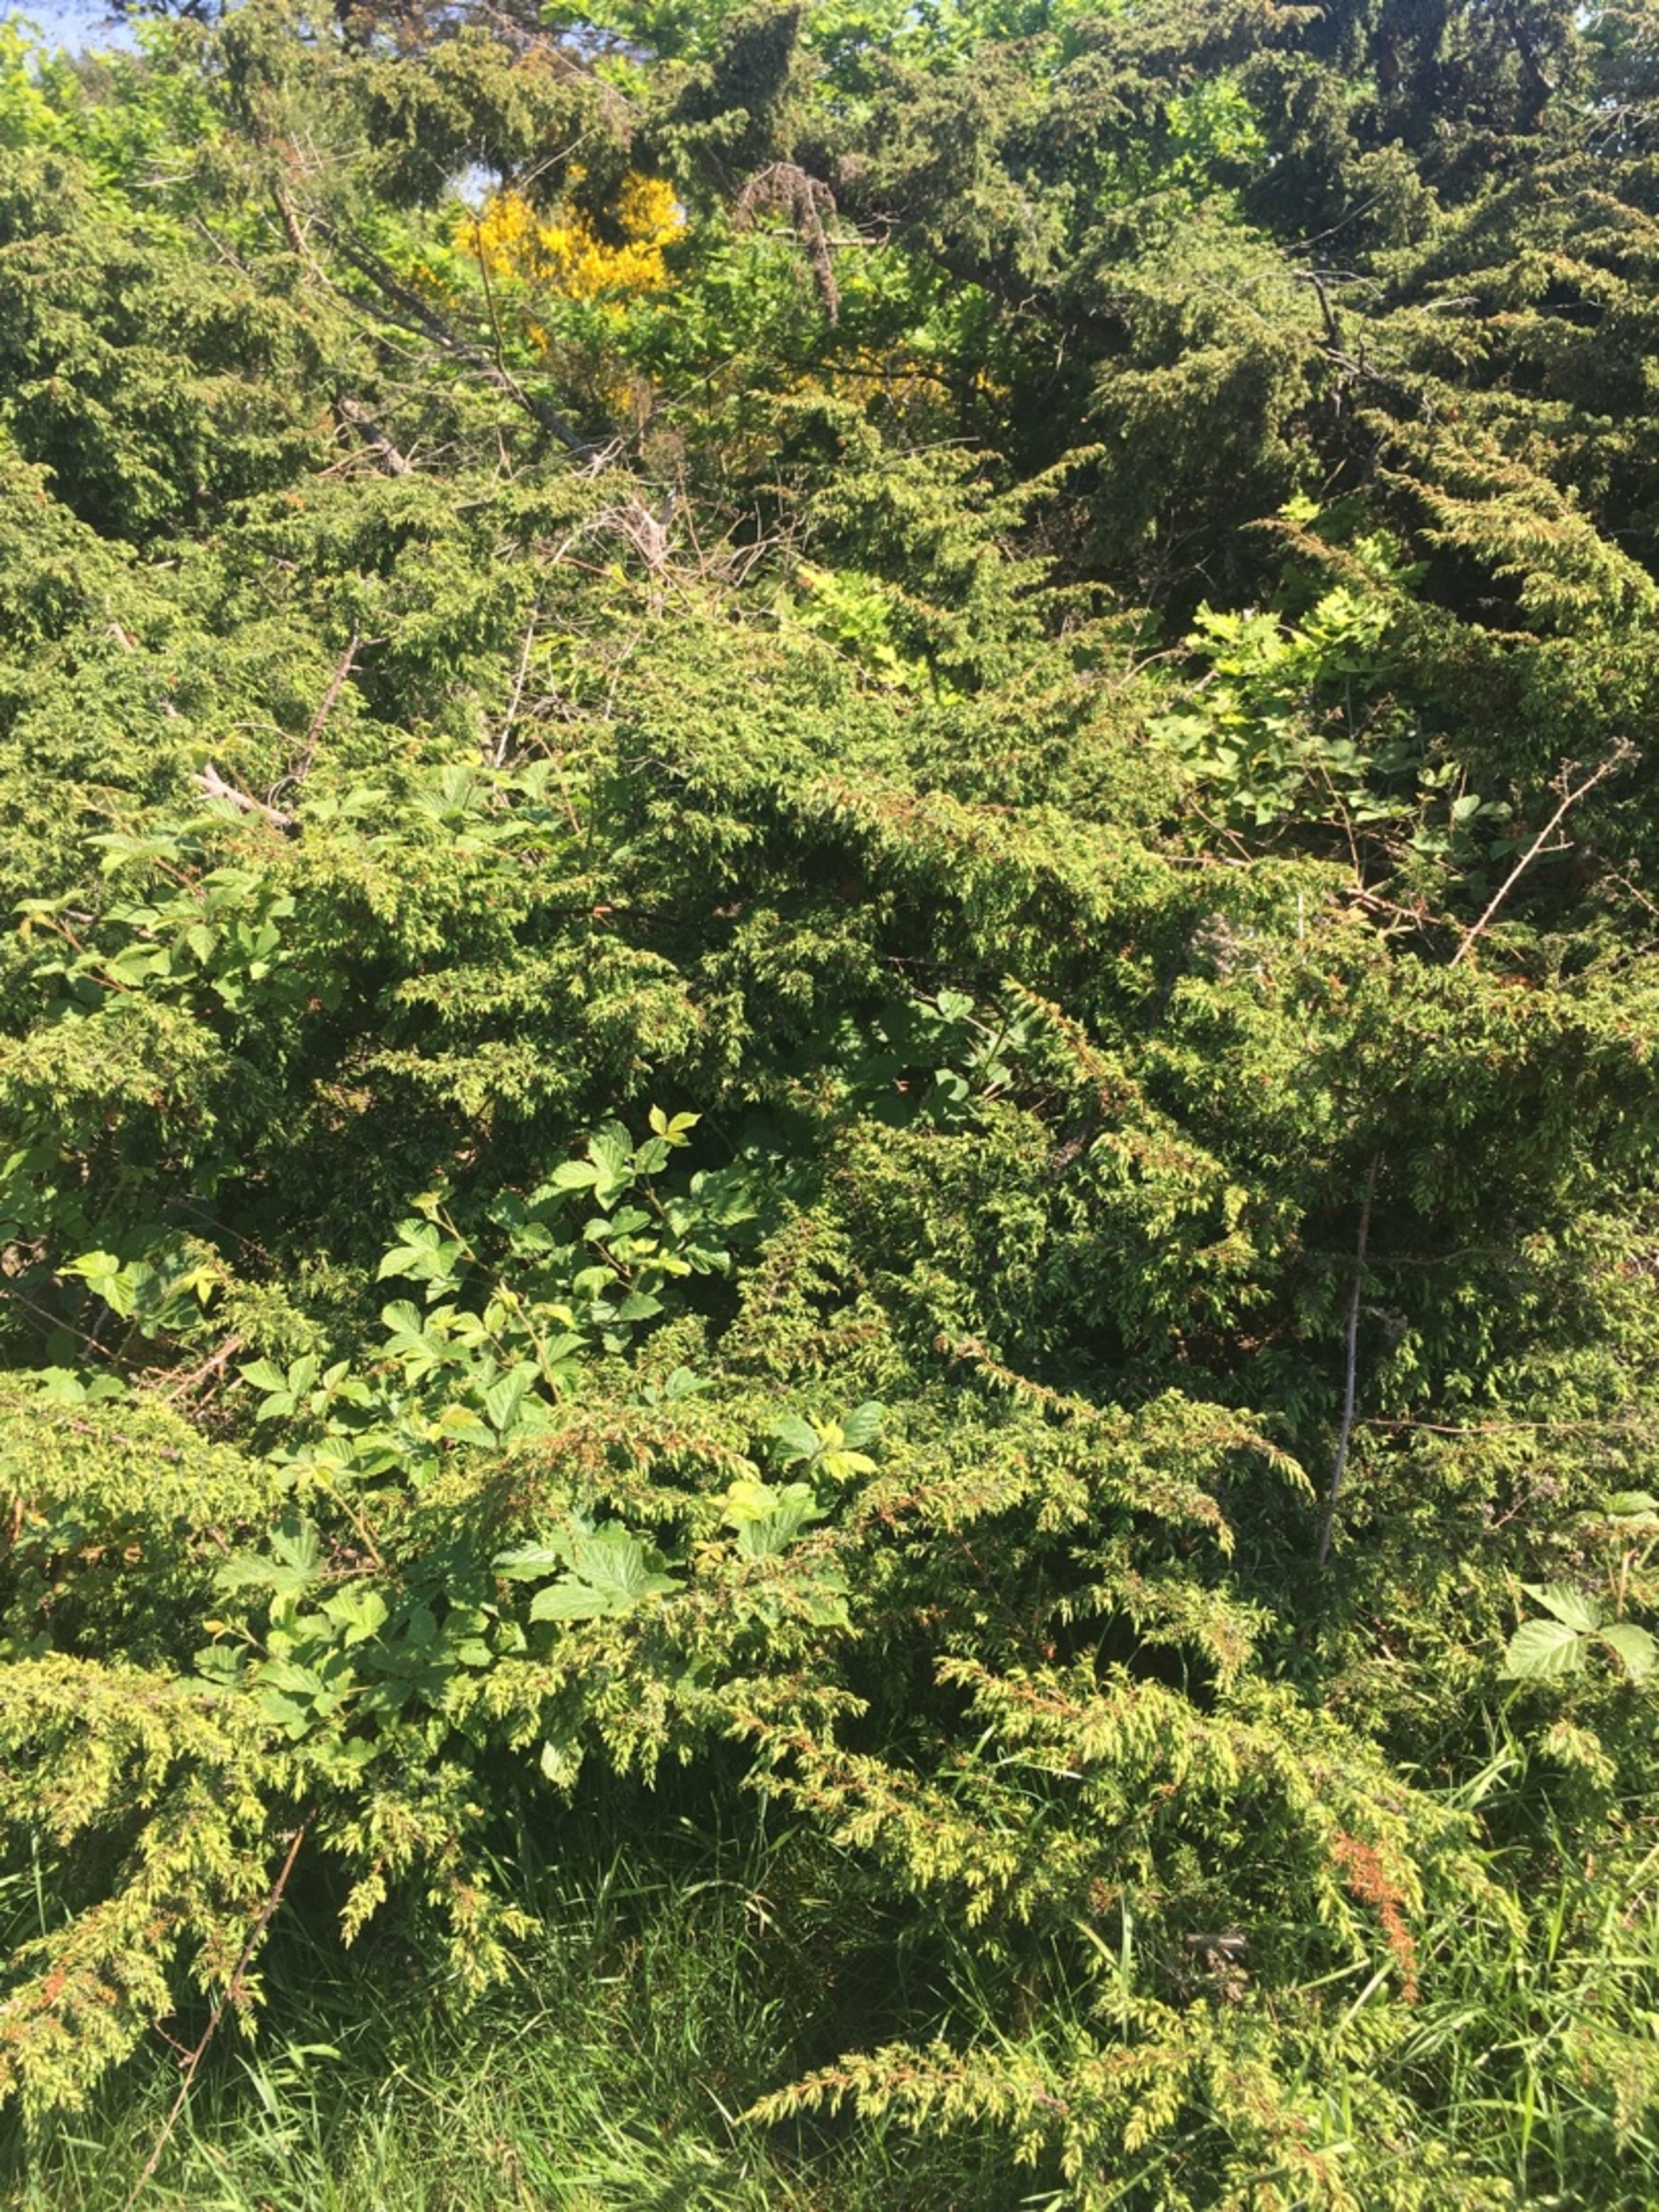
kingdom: Plantae
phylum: Tracheophyta
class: Pinopsida
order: Pinales
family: Cupressaceae
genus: Juniperus
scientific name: Juniperus communis
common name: Almindelig ene
